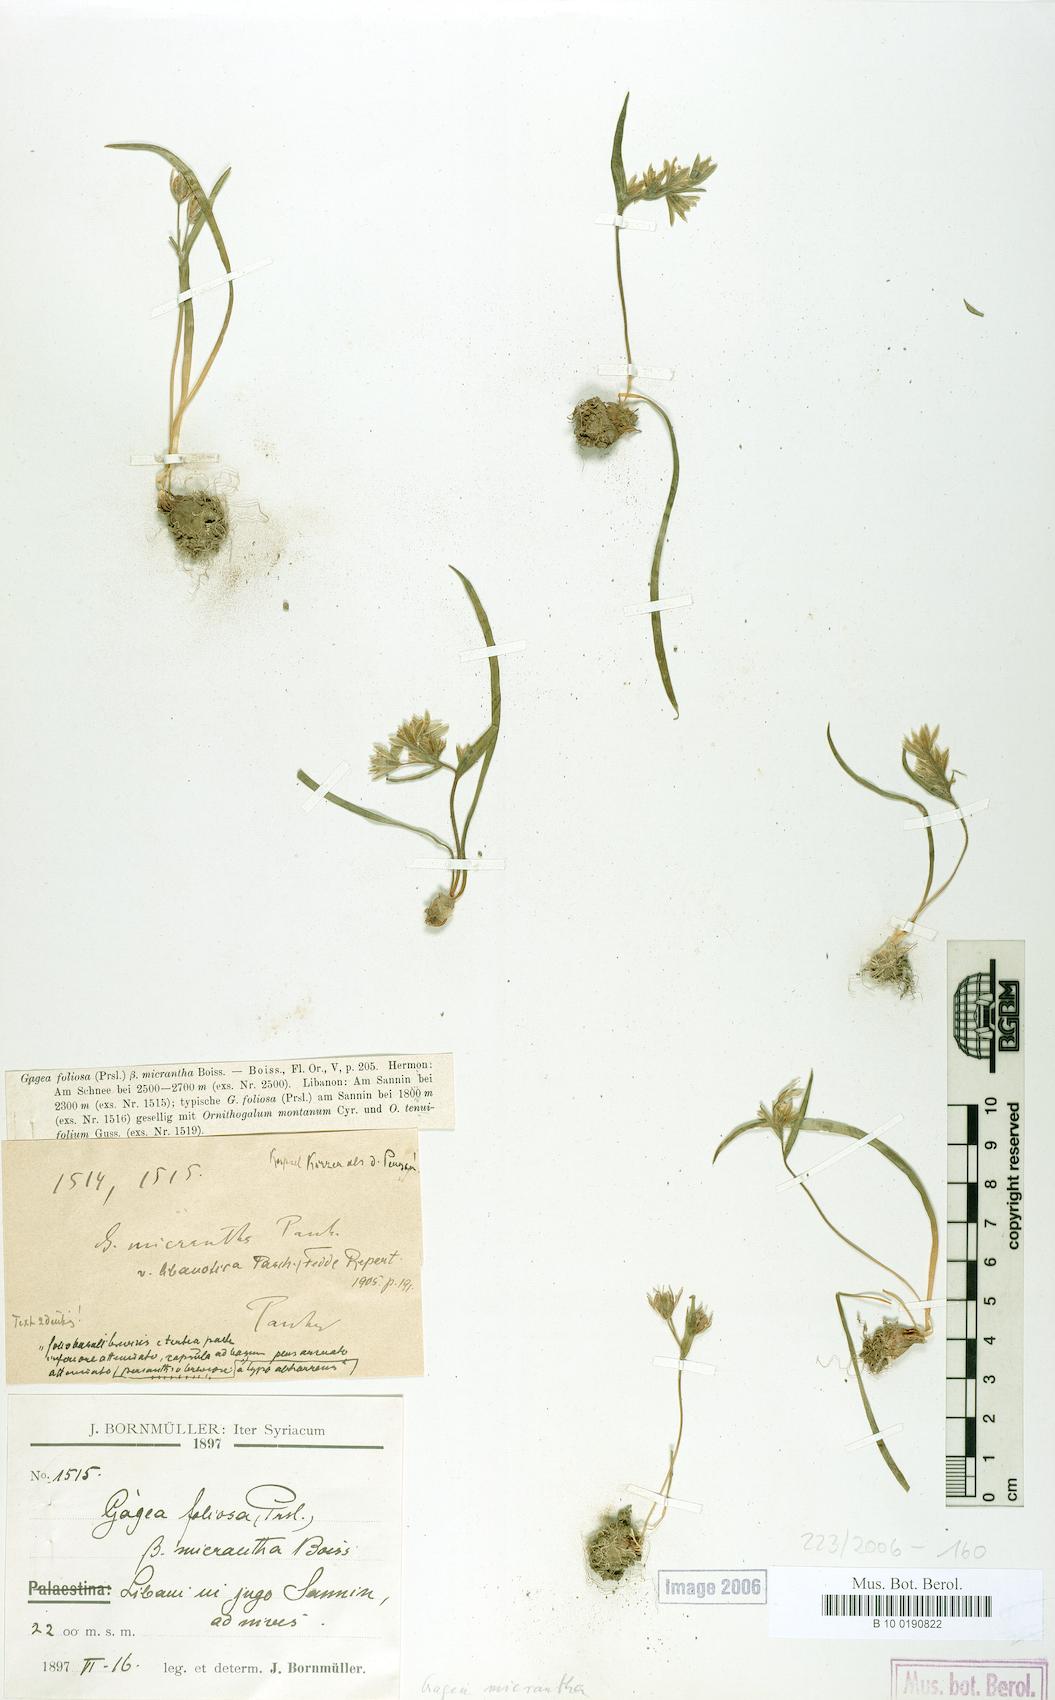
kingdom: Plantae
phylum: Tracheophyta
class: Liliopsida
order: Liliales
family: Liliaceae
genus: Gagea
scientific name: Gagea micrantha
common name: Small-flowered gagea
